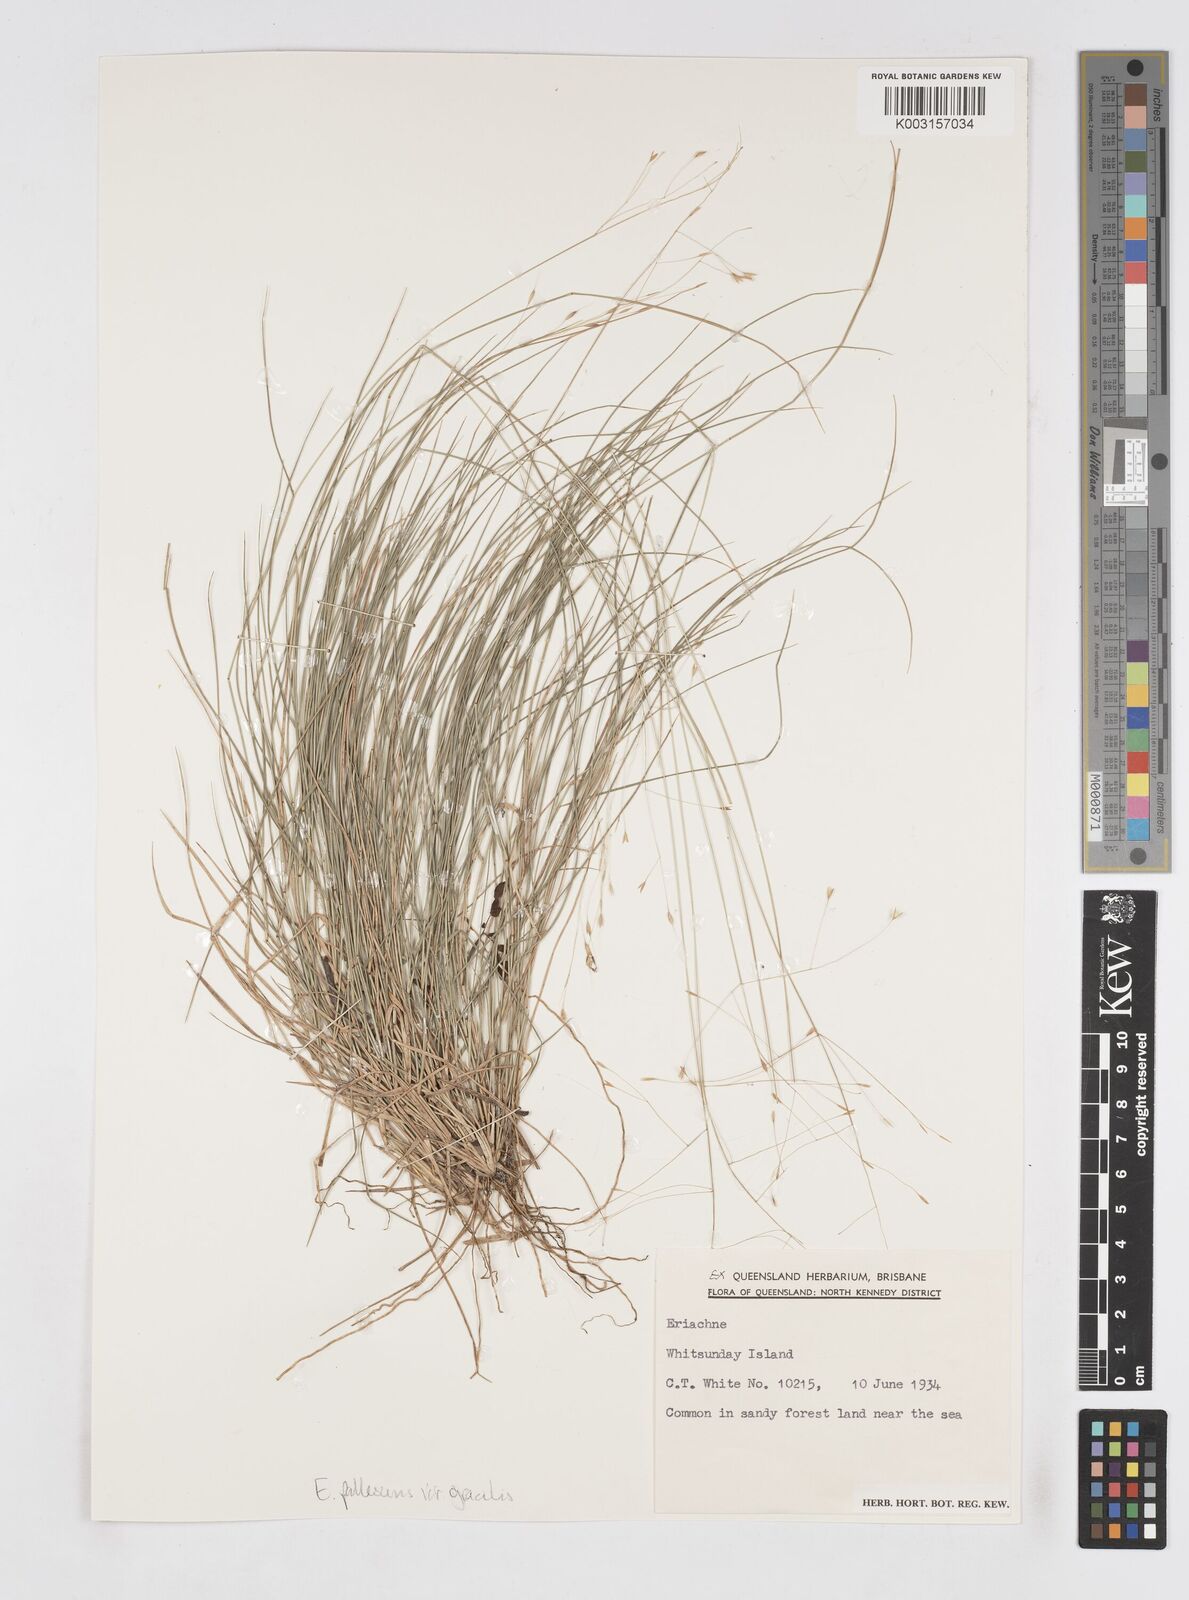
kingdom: Plantae
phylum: Tracheophyta
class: Liliopsida
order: Poales
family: Poaceae
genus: Eriachne
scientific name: Eriachne pallescens
